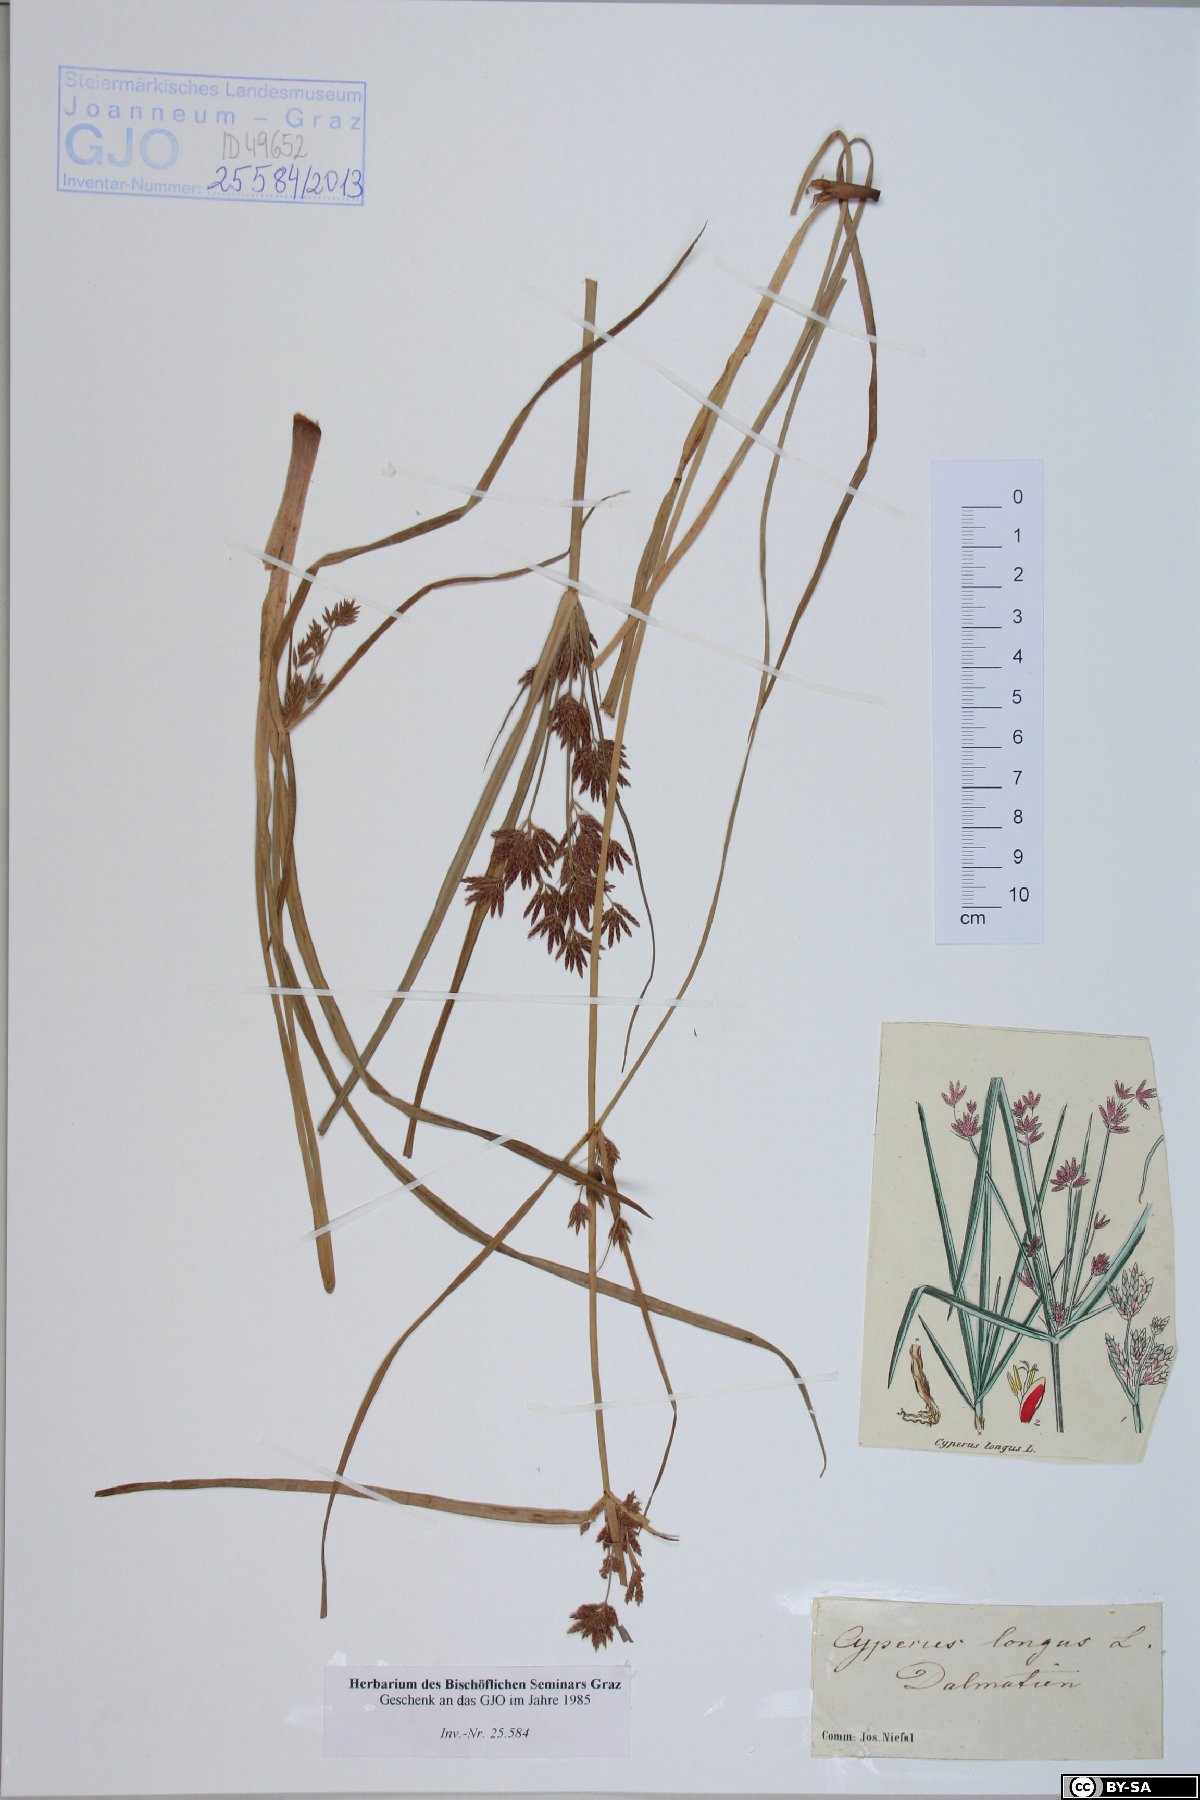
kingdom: Plantae
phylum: Tracheophyta
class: Liliopsida
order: Poales
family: Cyperaceae
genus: Cyperus
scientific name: Cyperus longus
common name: Galingale
